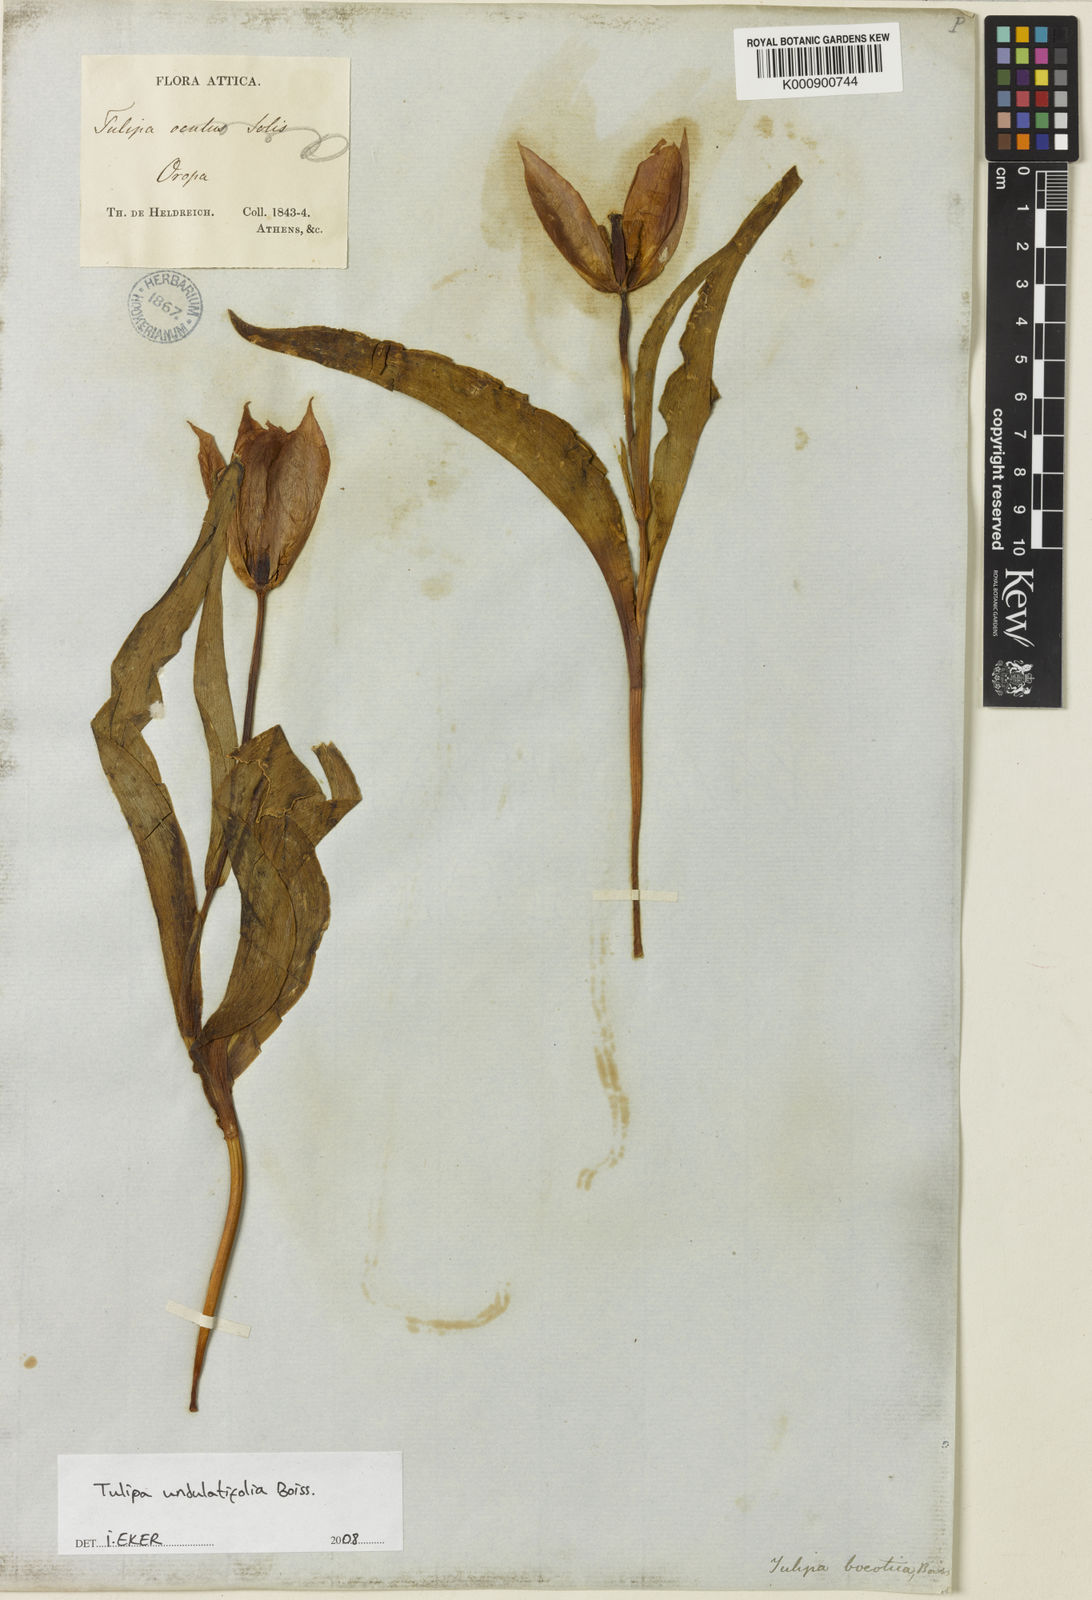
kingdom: Plantae
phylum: Tracheophyta
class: Liliopsida
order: Liliales
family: Liliaceae
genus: Tulipa
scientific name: Tulipa undulatifolia
